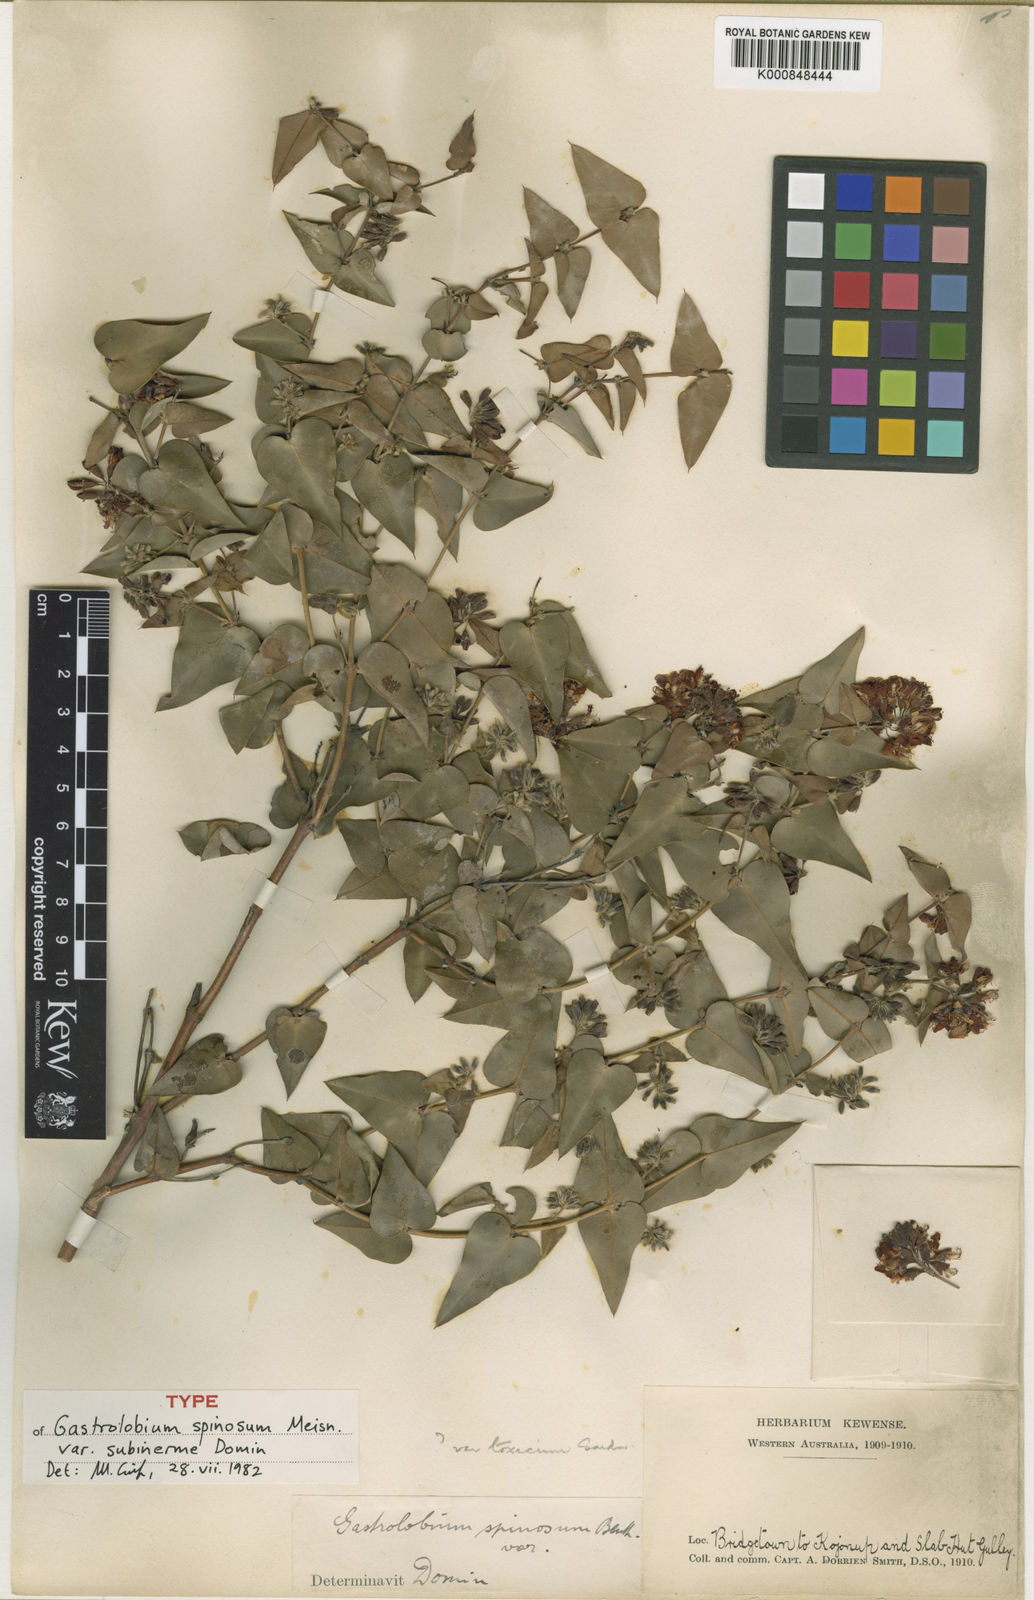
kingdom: Plantae
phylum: Tracheophyta
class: Magnoliopsida
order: Fabales
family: Fabaceae
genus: Gastrolobium
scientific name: Gastrolobium spinosum
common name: Prickly poison
